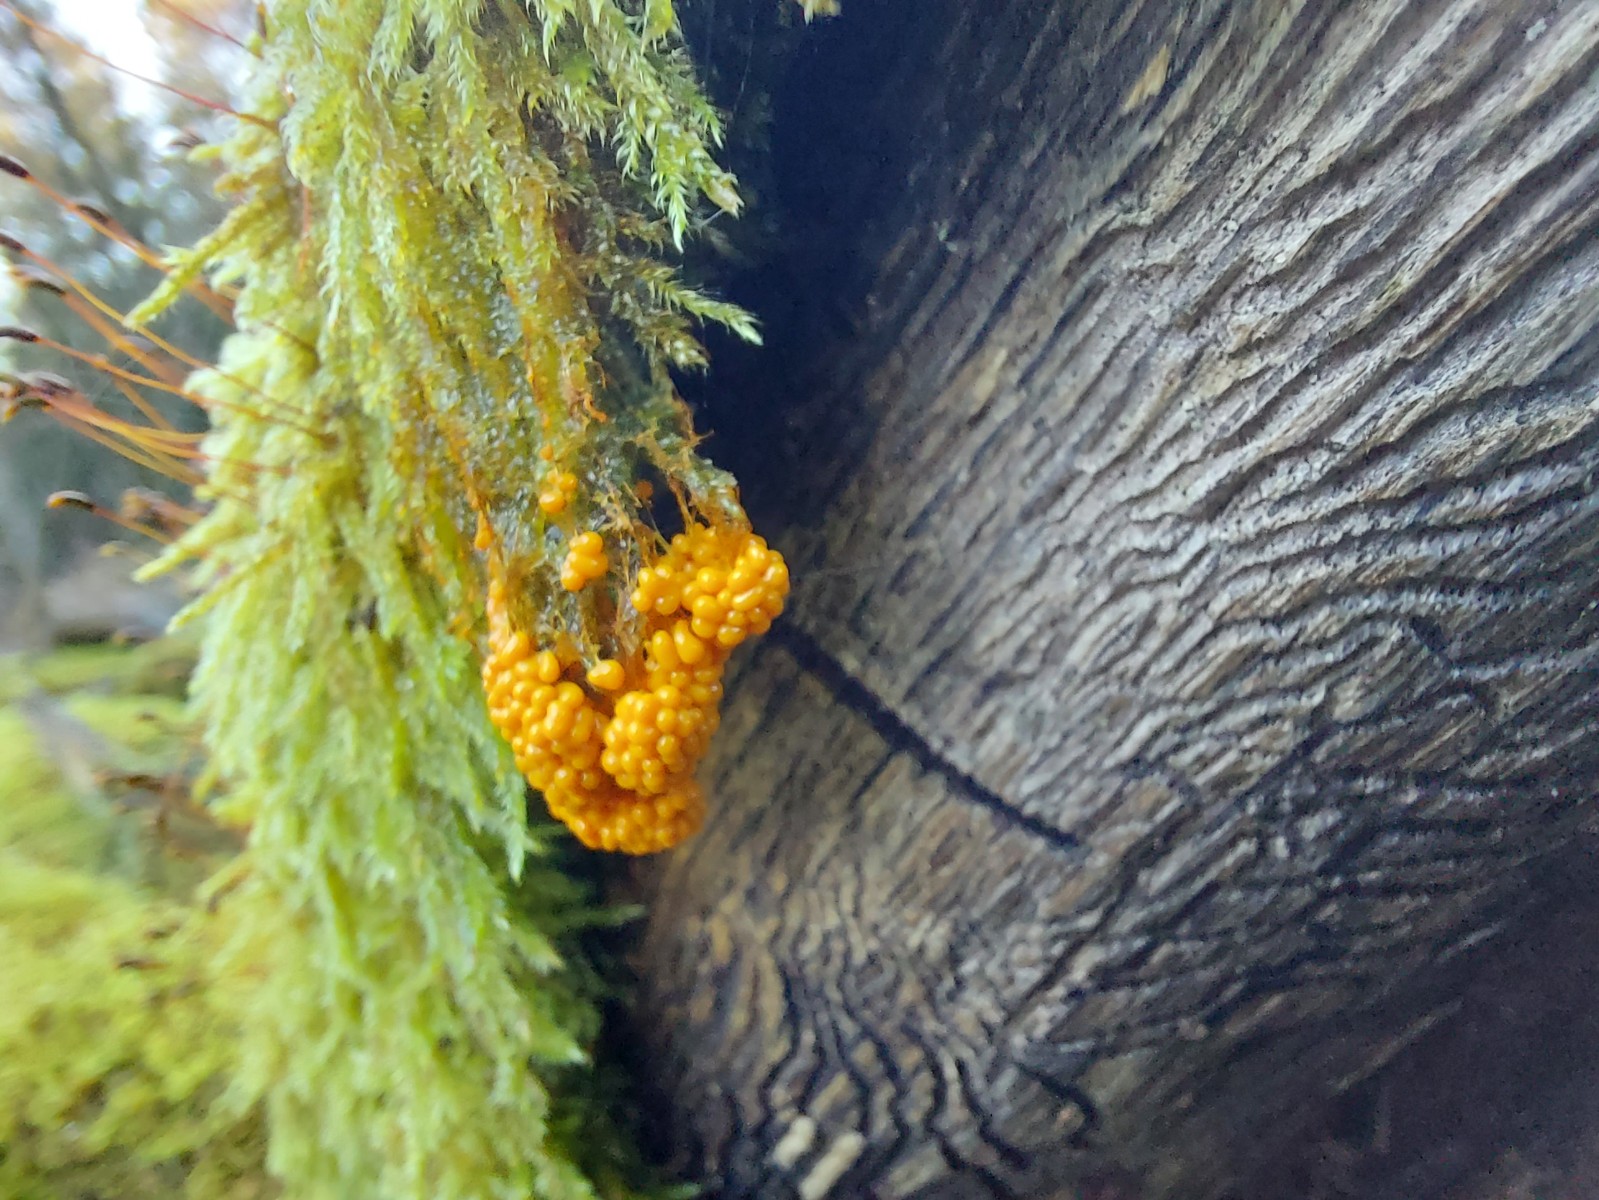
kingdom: Protozoa
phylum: Mycetozoa
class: Myxomycetes
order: Physarales
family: Physaraceae
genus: Badhamia
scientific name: Badhamia utricularis
